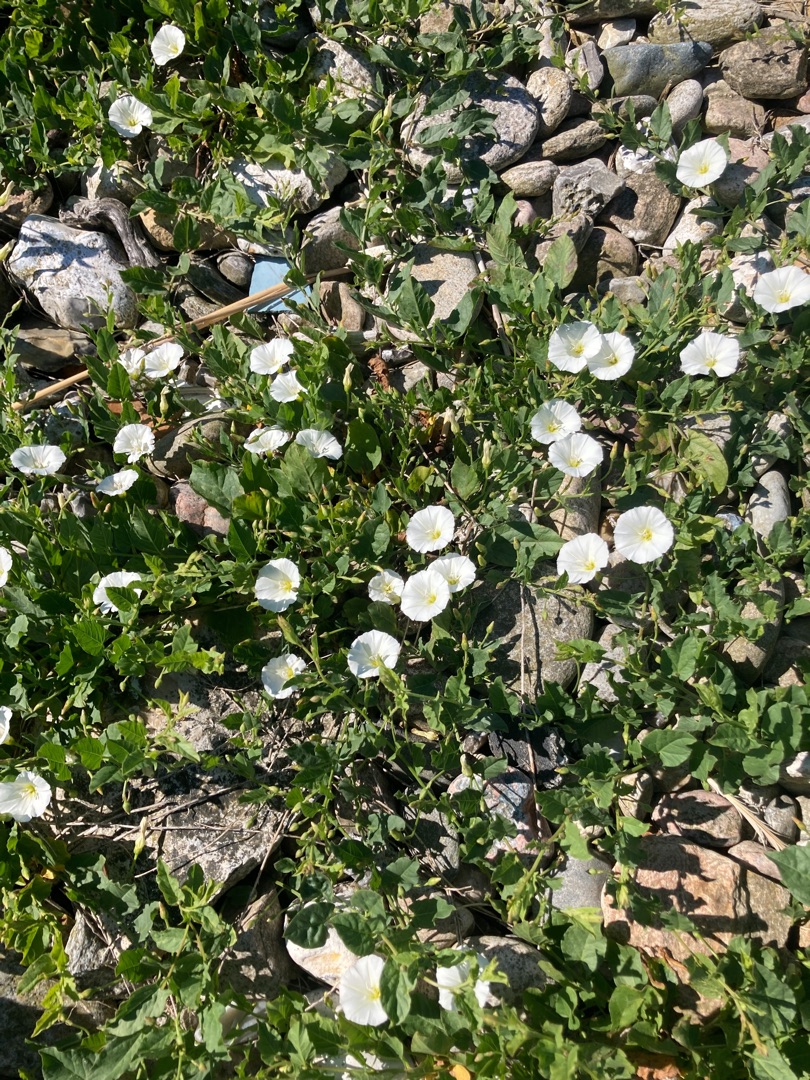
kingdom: Plantae
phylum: Tracheophyta
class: Magnoliopsida
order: Solanales
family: Convolvulaceae
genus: Convolvulus
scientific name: Convolvulus arvensis
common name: Ager-snerle
